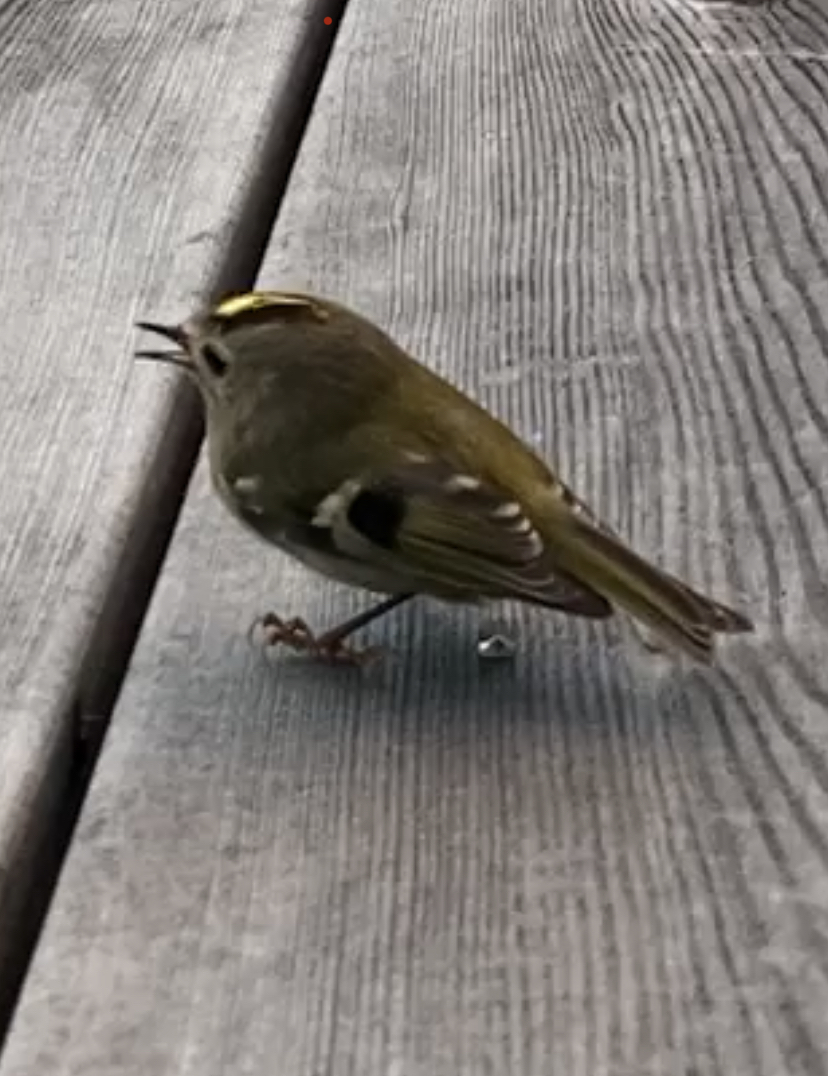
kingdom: Animalia
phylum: Chordata
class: Aves
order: Passeriformes
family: Regulidae
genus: Regulus
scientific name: Regulus regulus
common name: Goldcrest
